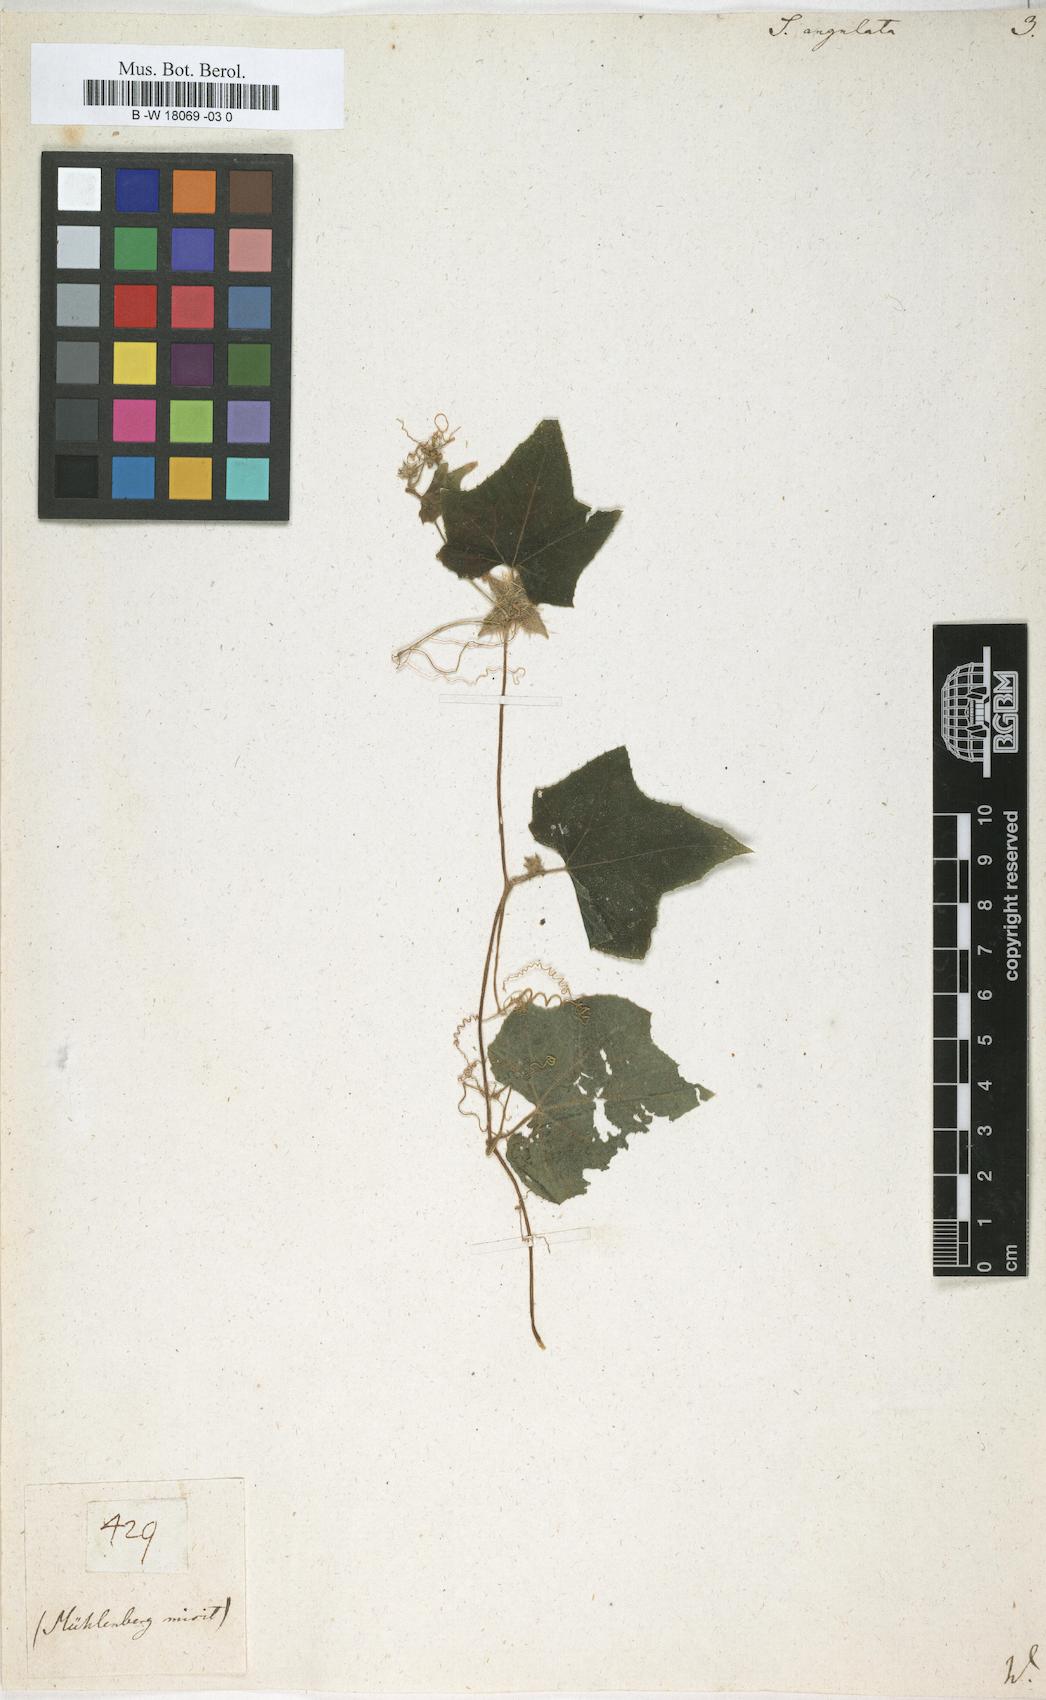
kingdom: Plantae
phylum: Tracheophyta
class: Magnoliopsida
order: Cucurbitales
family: Cucurbitaceae
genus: Sicyos
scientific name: Sicyos angulatus
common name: Angled burr cucumber
